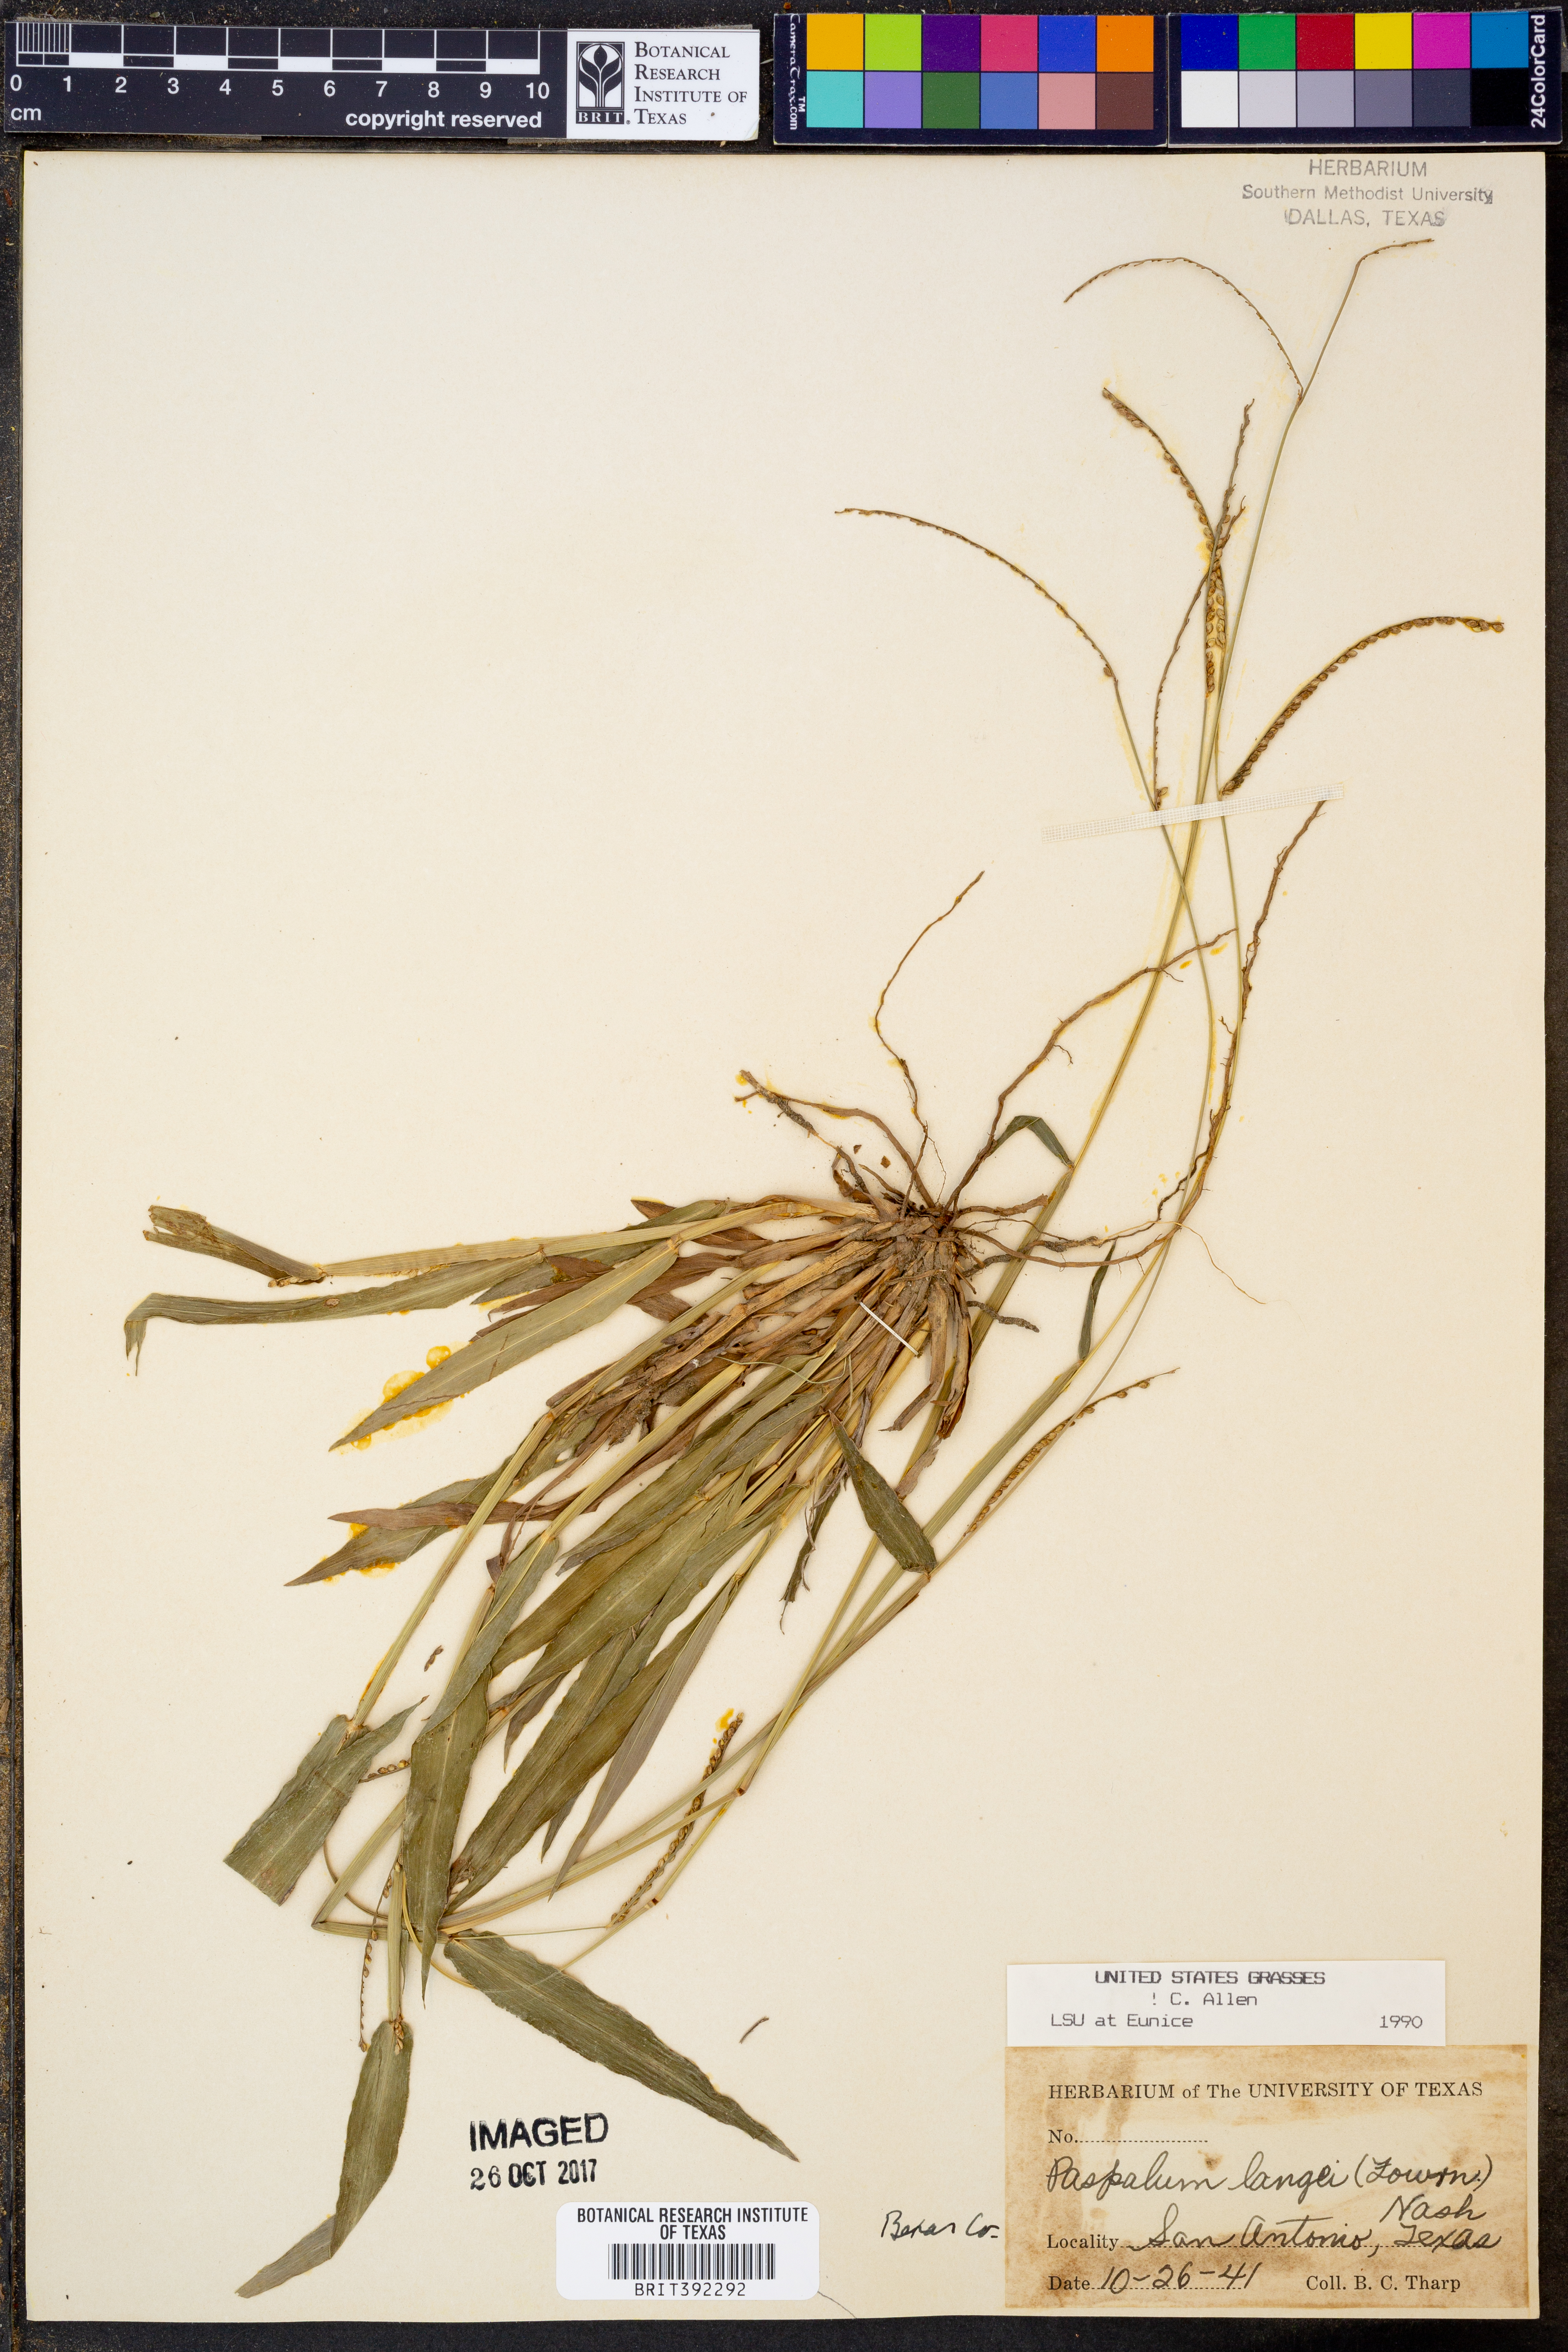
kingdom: Plantae
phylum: Tracheophyta
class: Liliopsida
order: Poales
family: Poaceae
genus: Paspalum
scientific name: Paspalum langei
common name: Rusty-seed paspalum
